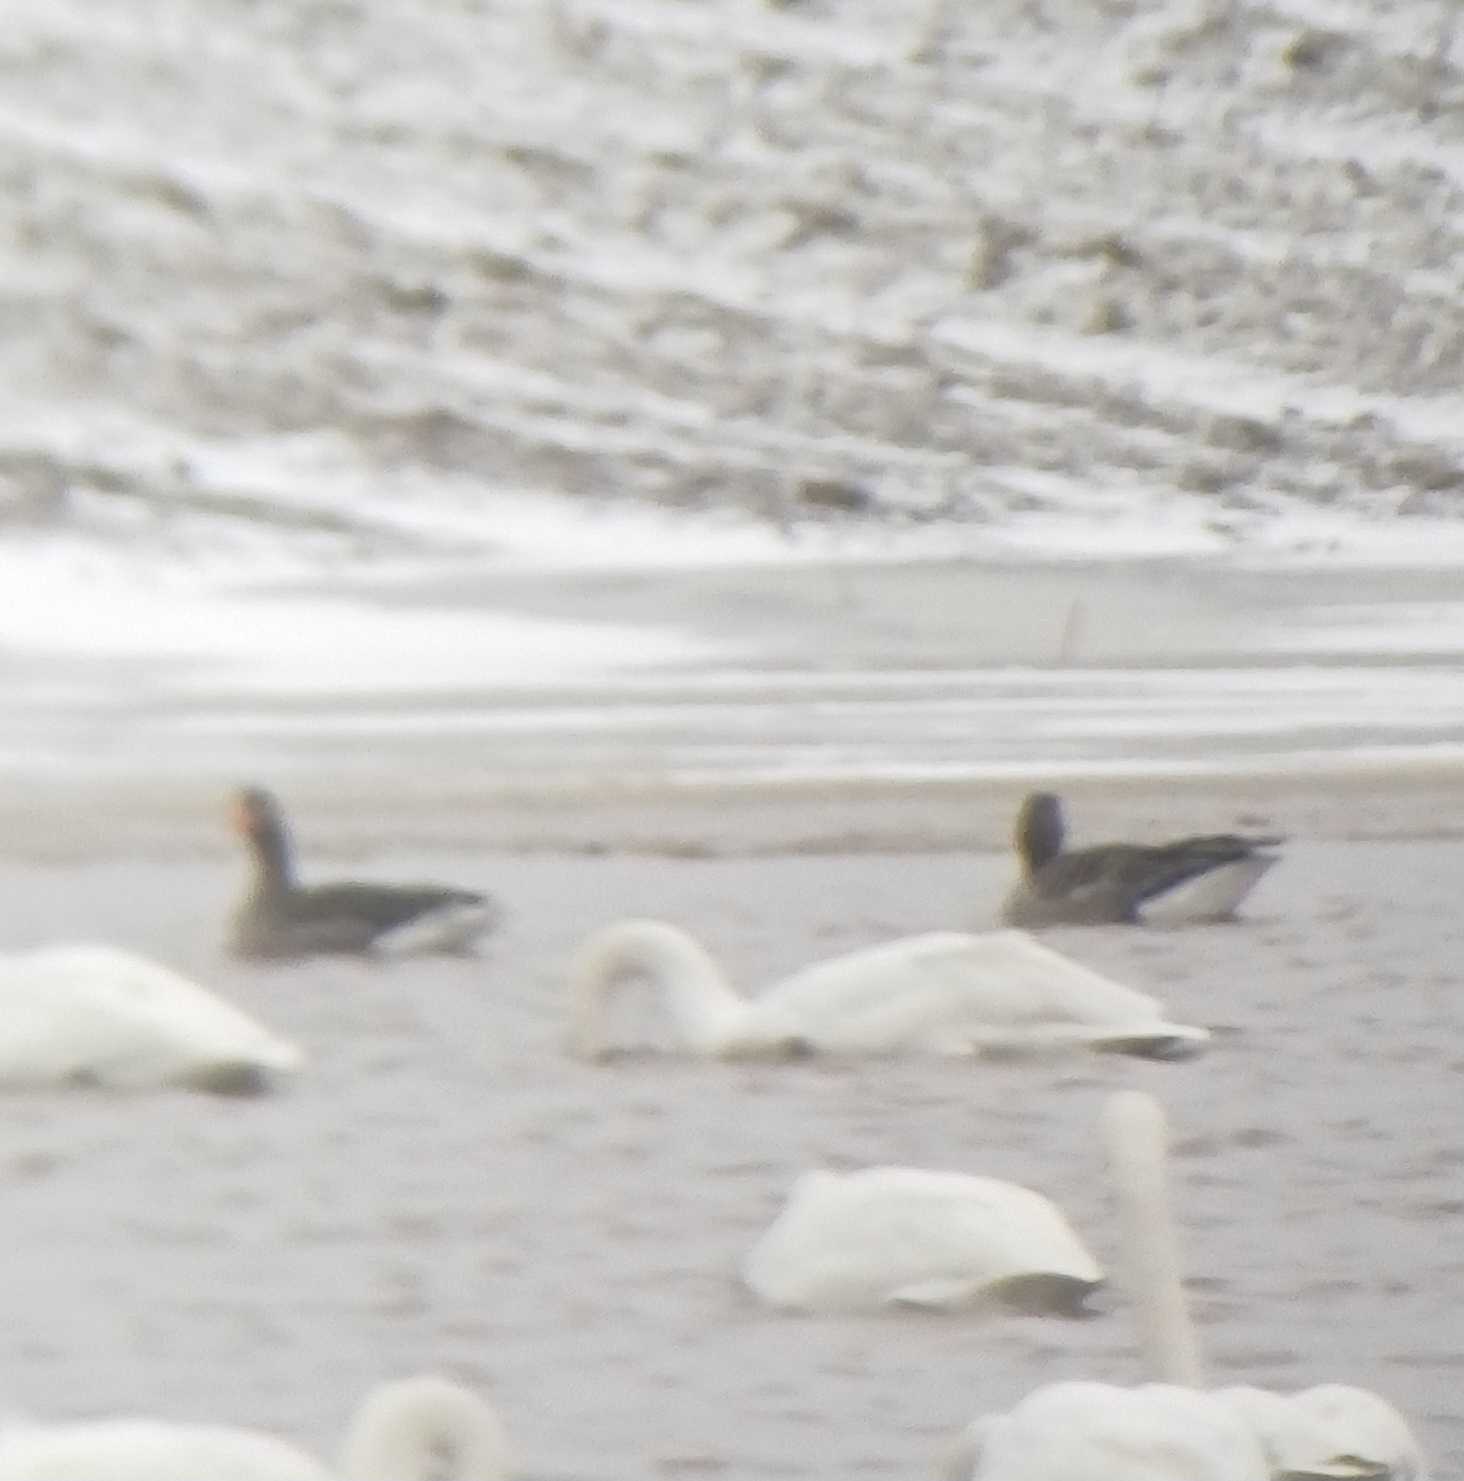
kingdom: Animalia
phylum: Chordata
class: Aves
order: Anseriformes
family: Anatidae
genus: Anser
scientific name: Anser anser
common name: Grågås
